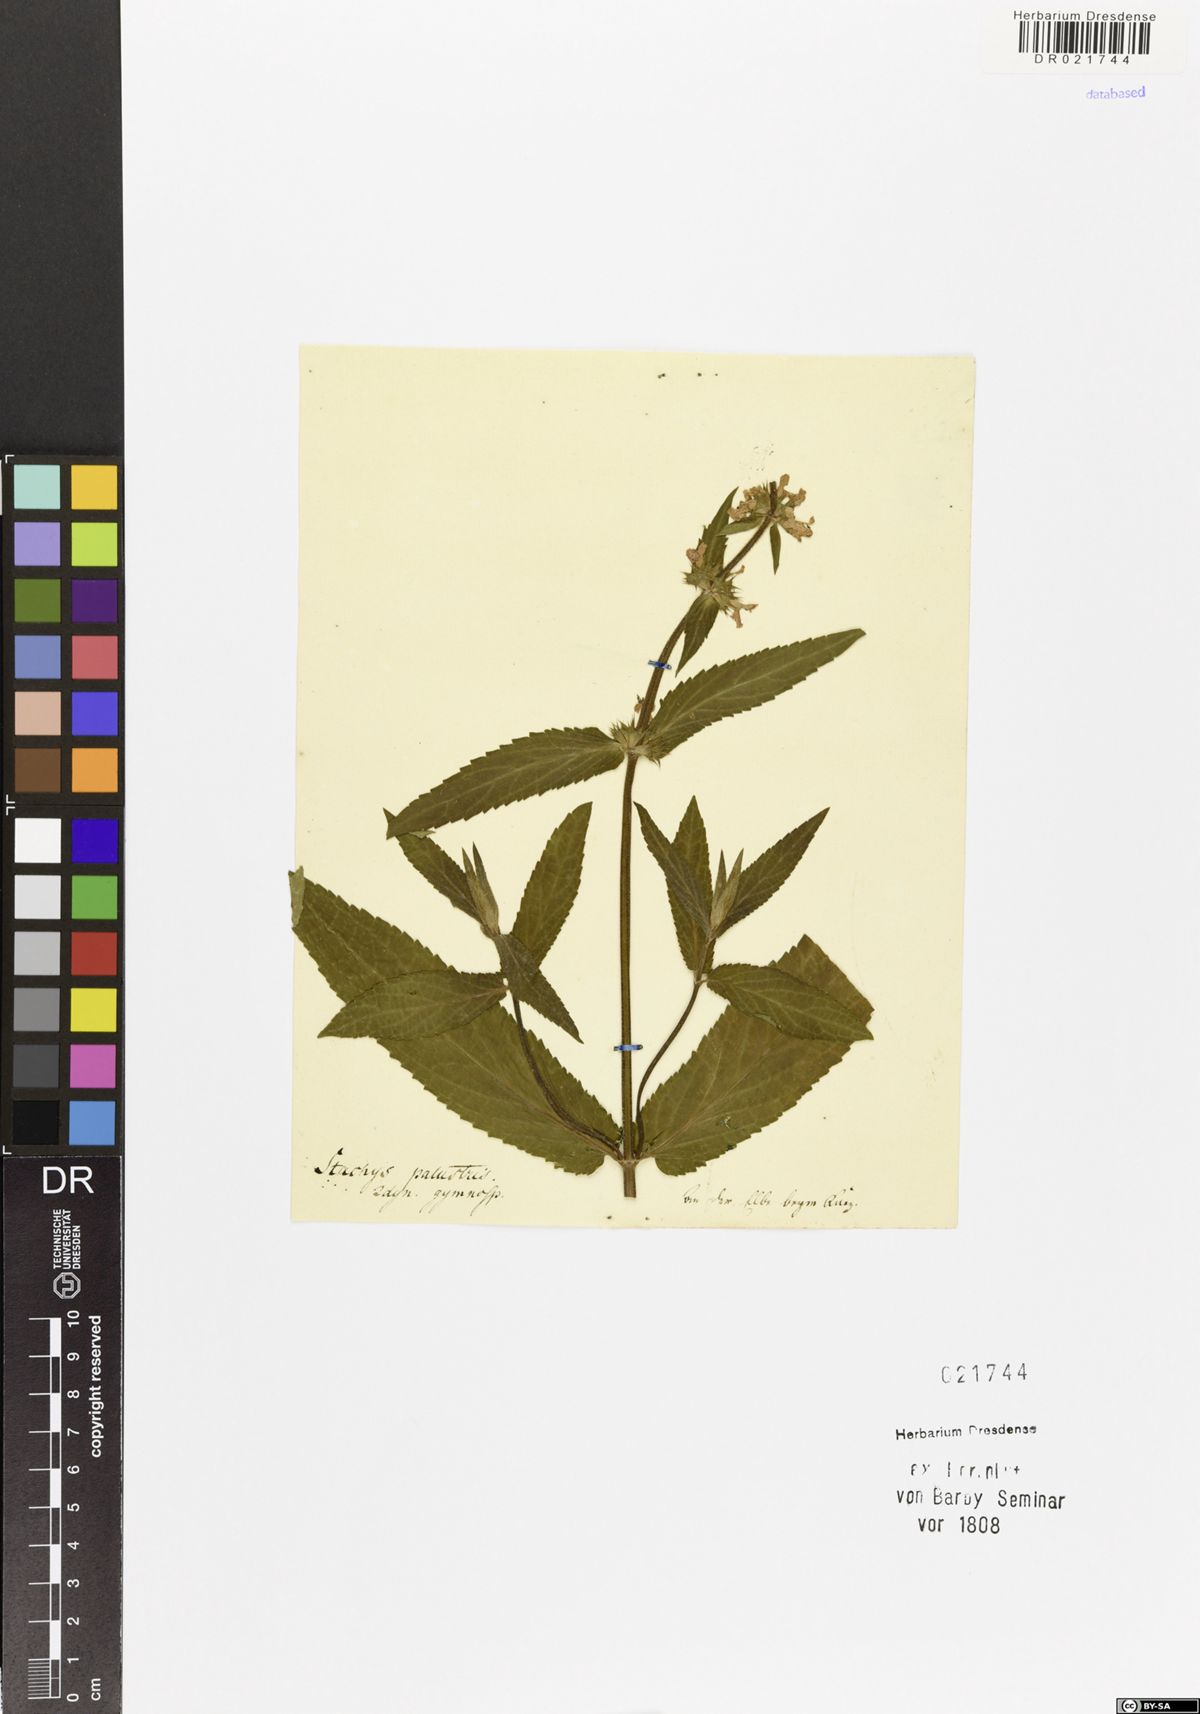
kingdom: Plantae
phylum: Tracheophyta
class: Magnoliopsida
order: Lamiales
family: Lamiaceae
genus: Stachys
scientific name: Stachys palustris
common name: Marsh woundwort
